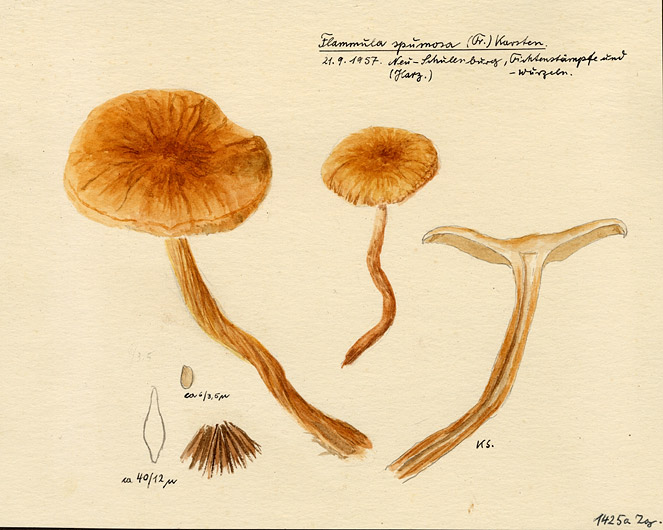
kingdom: Fungi
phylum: Basidiomycota
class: Agaricomycetes
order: Agaricales
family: Strophariaceae
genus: Pholiota
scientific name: Pholiota spumosa
